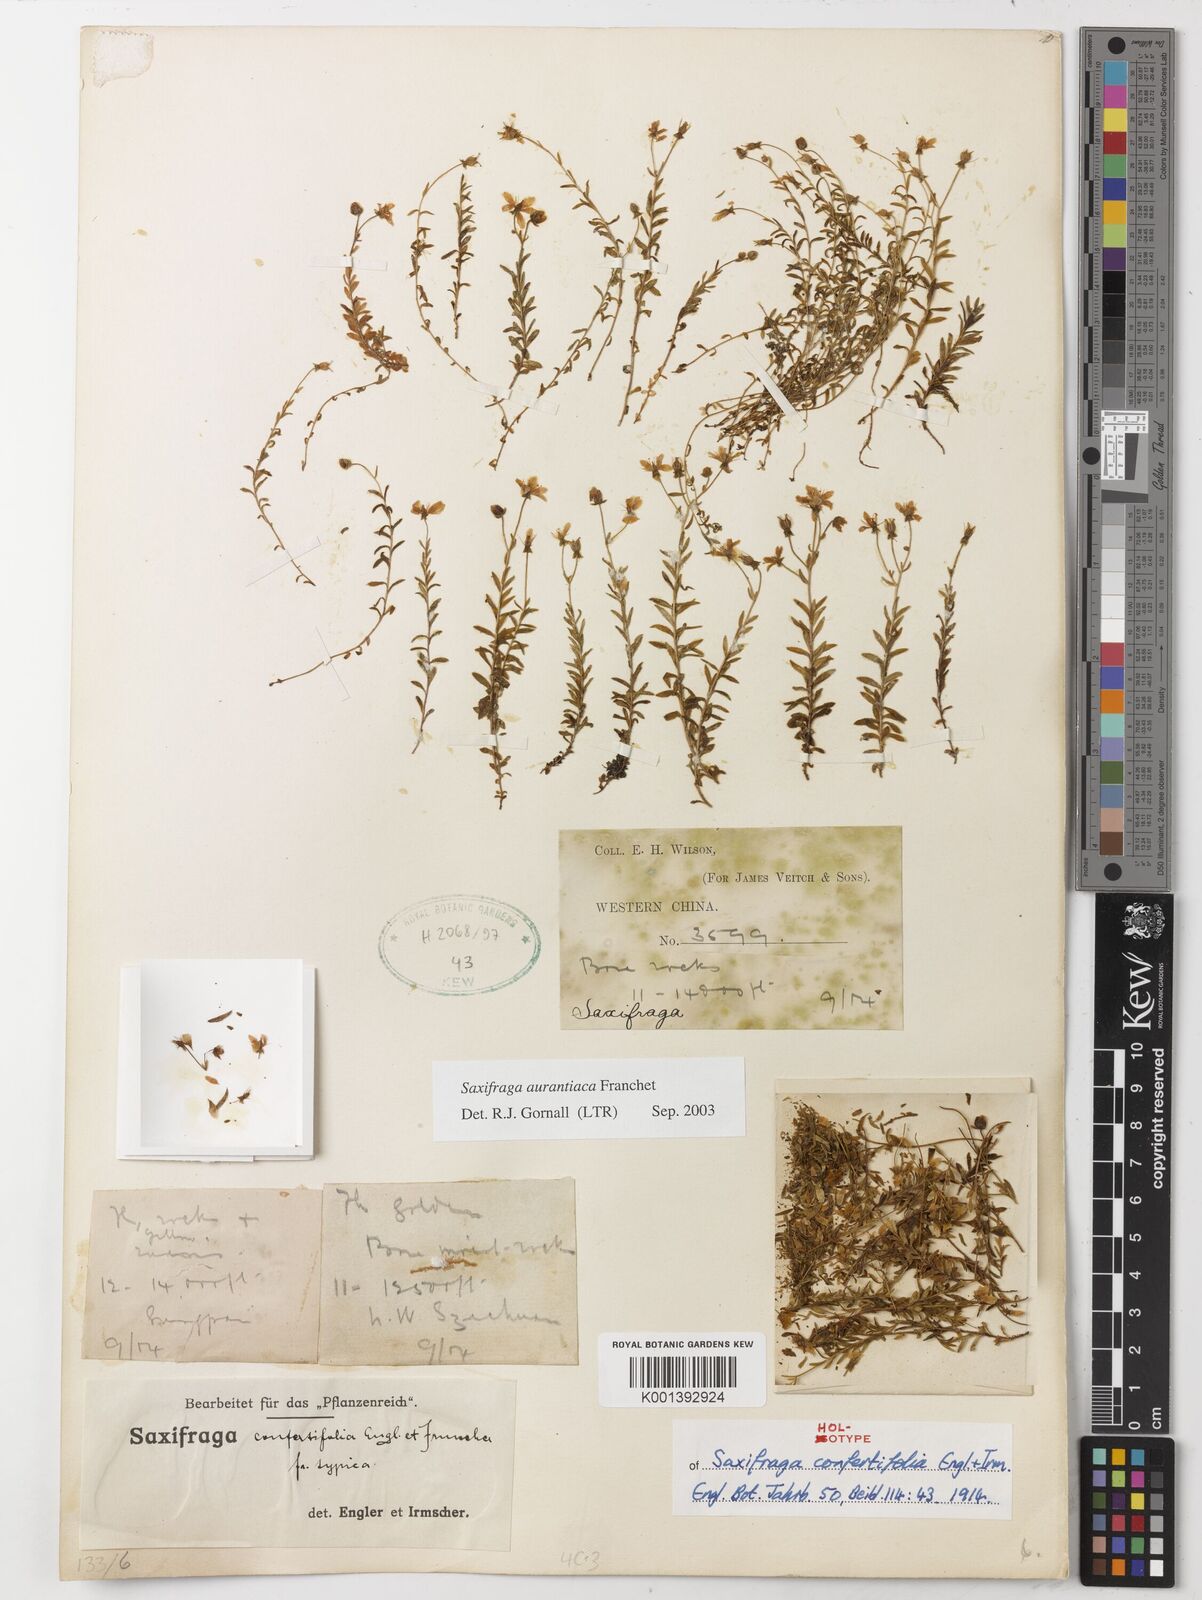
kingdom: Plantae
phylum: Tracheophyta
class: Magnoliopsida
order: Saxifragales
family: Saxifragaceae
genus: Saxifraga
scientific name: Saxifraga aurantiaca
